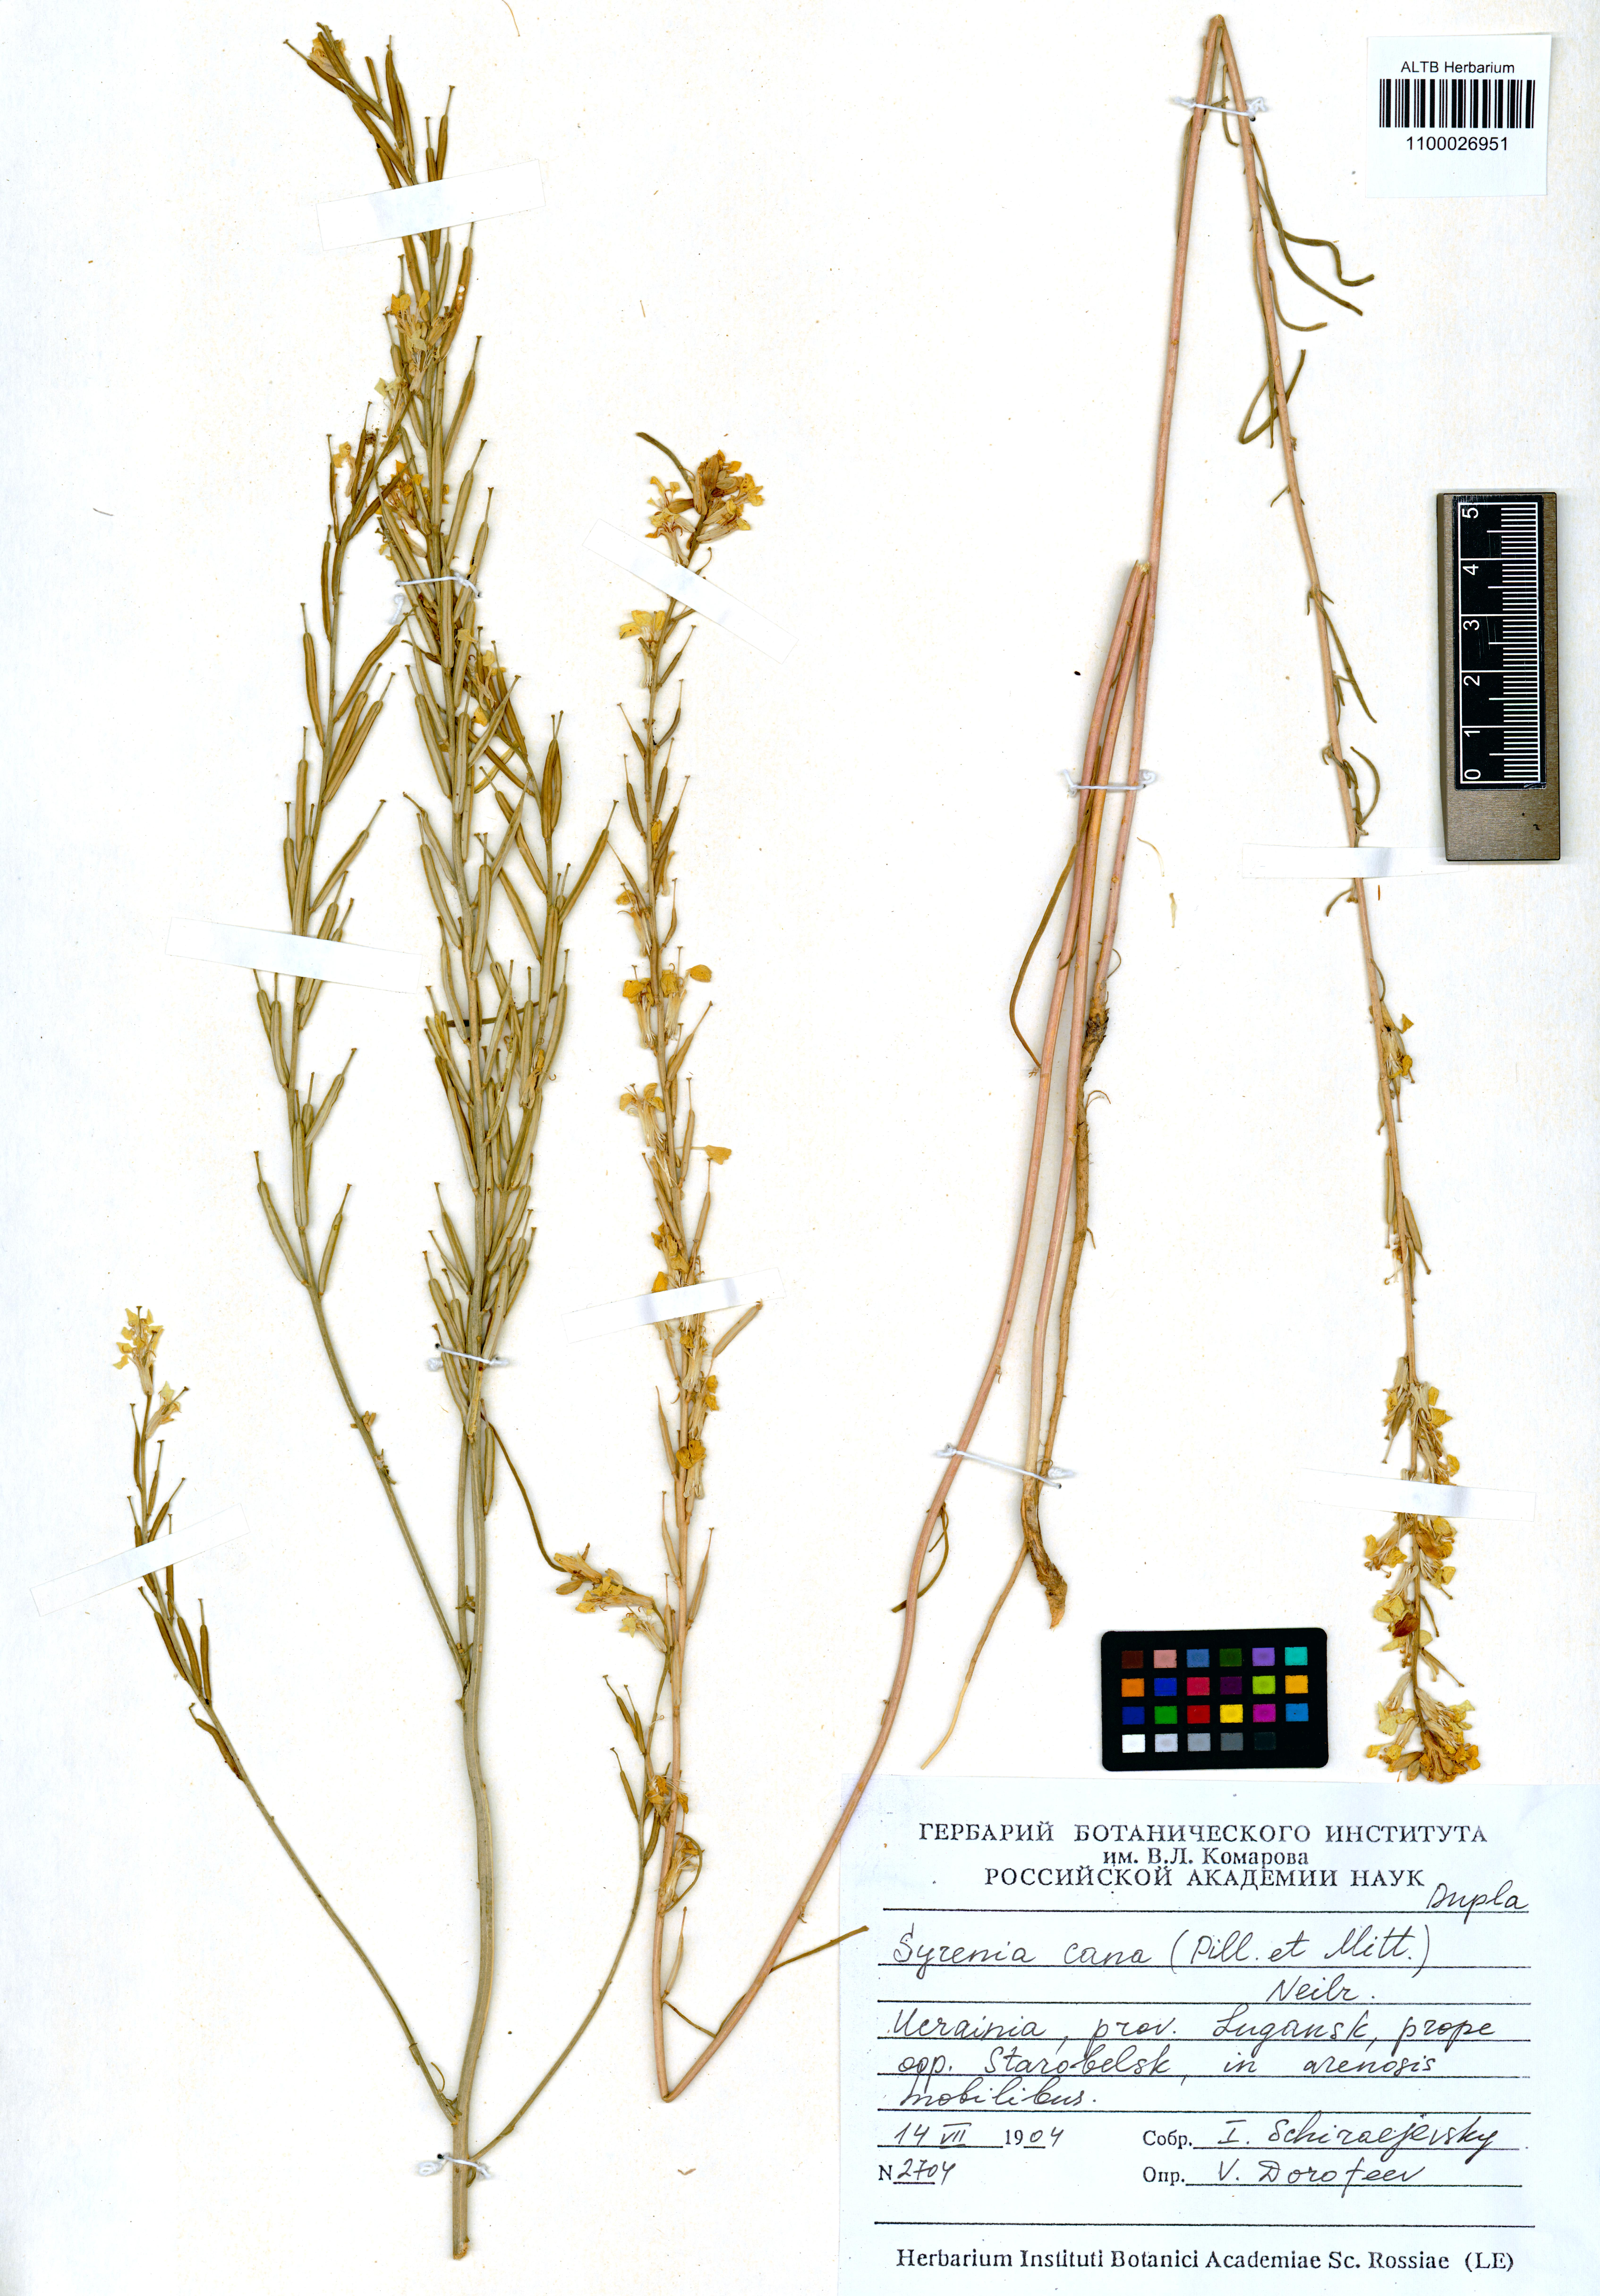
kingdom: Plantae
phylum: Tracheophyta
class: Magnoliopsida
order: Brassicales
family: Brassicaceae
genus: Erysimum
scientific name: Erysimum canum
